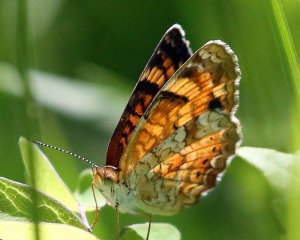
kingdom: Animalia
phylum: Arthropoda
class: Insecta
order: Lepidoptera
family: Nymphalidae
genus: Phyciodes
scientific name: Phyciodes tharos
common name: Northern Crescent
